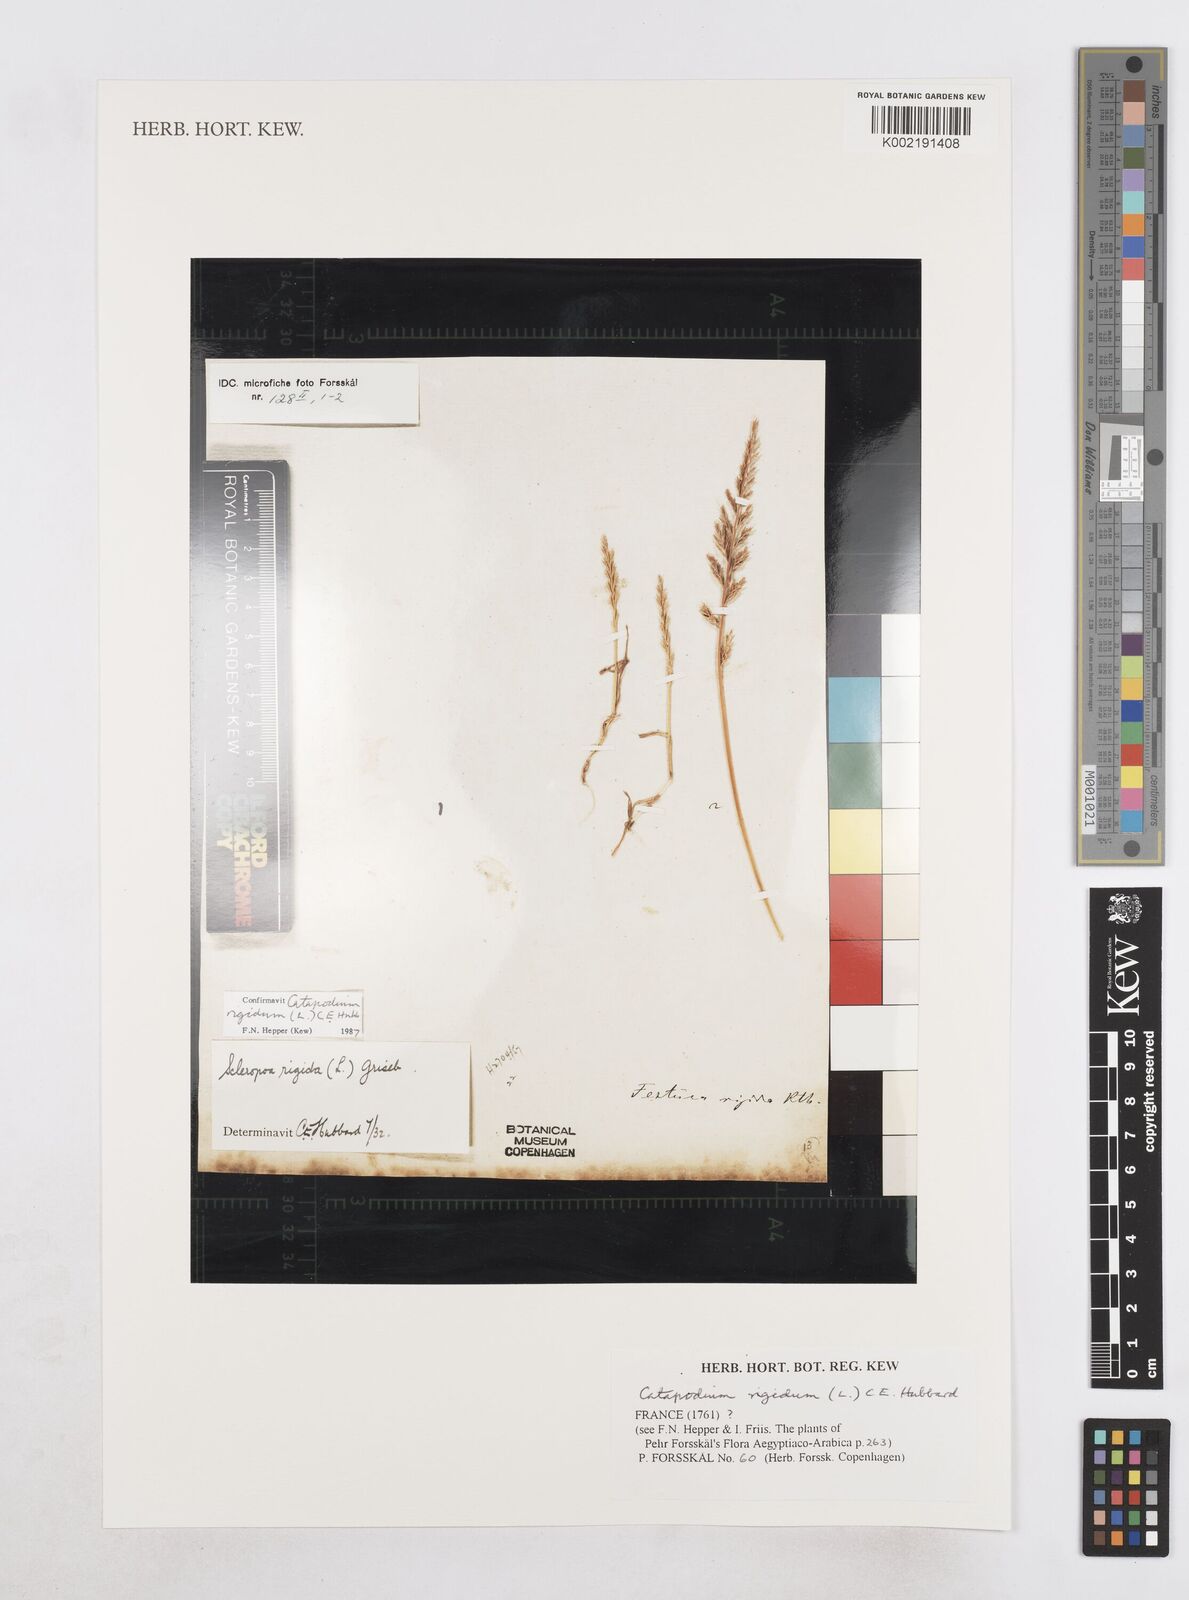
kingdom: Plantae
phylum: Tracheophyta
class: Liliopsida
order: Poales
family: Poaceae
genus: Catapodium
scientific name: Catapodium rigidum
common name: Fern-grass
